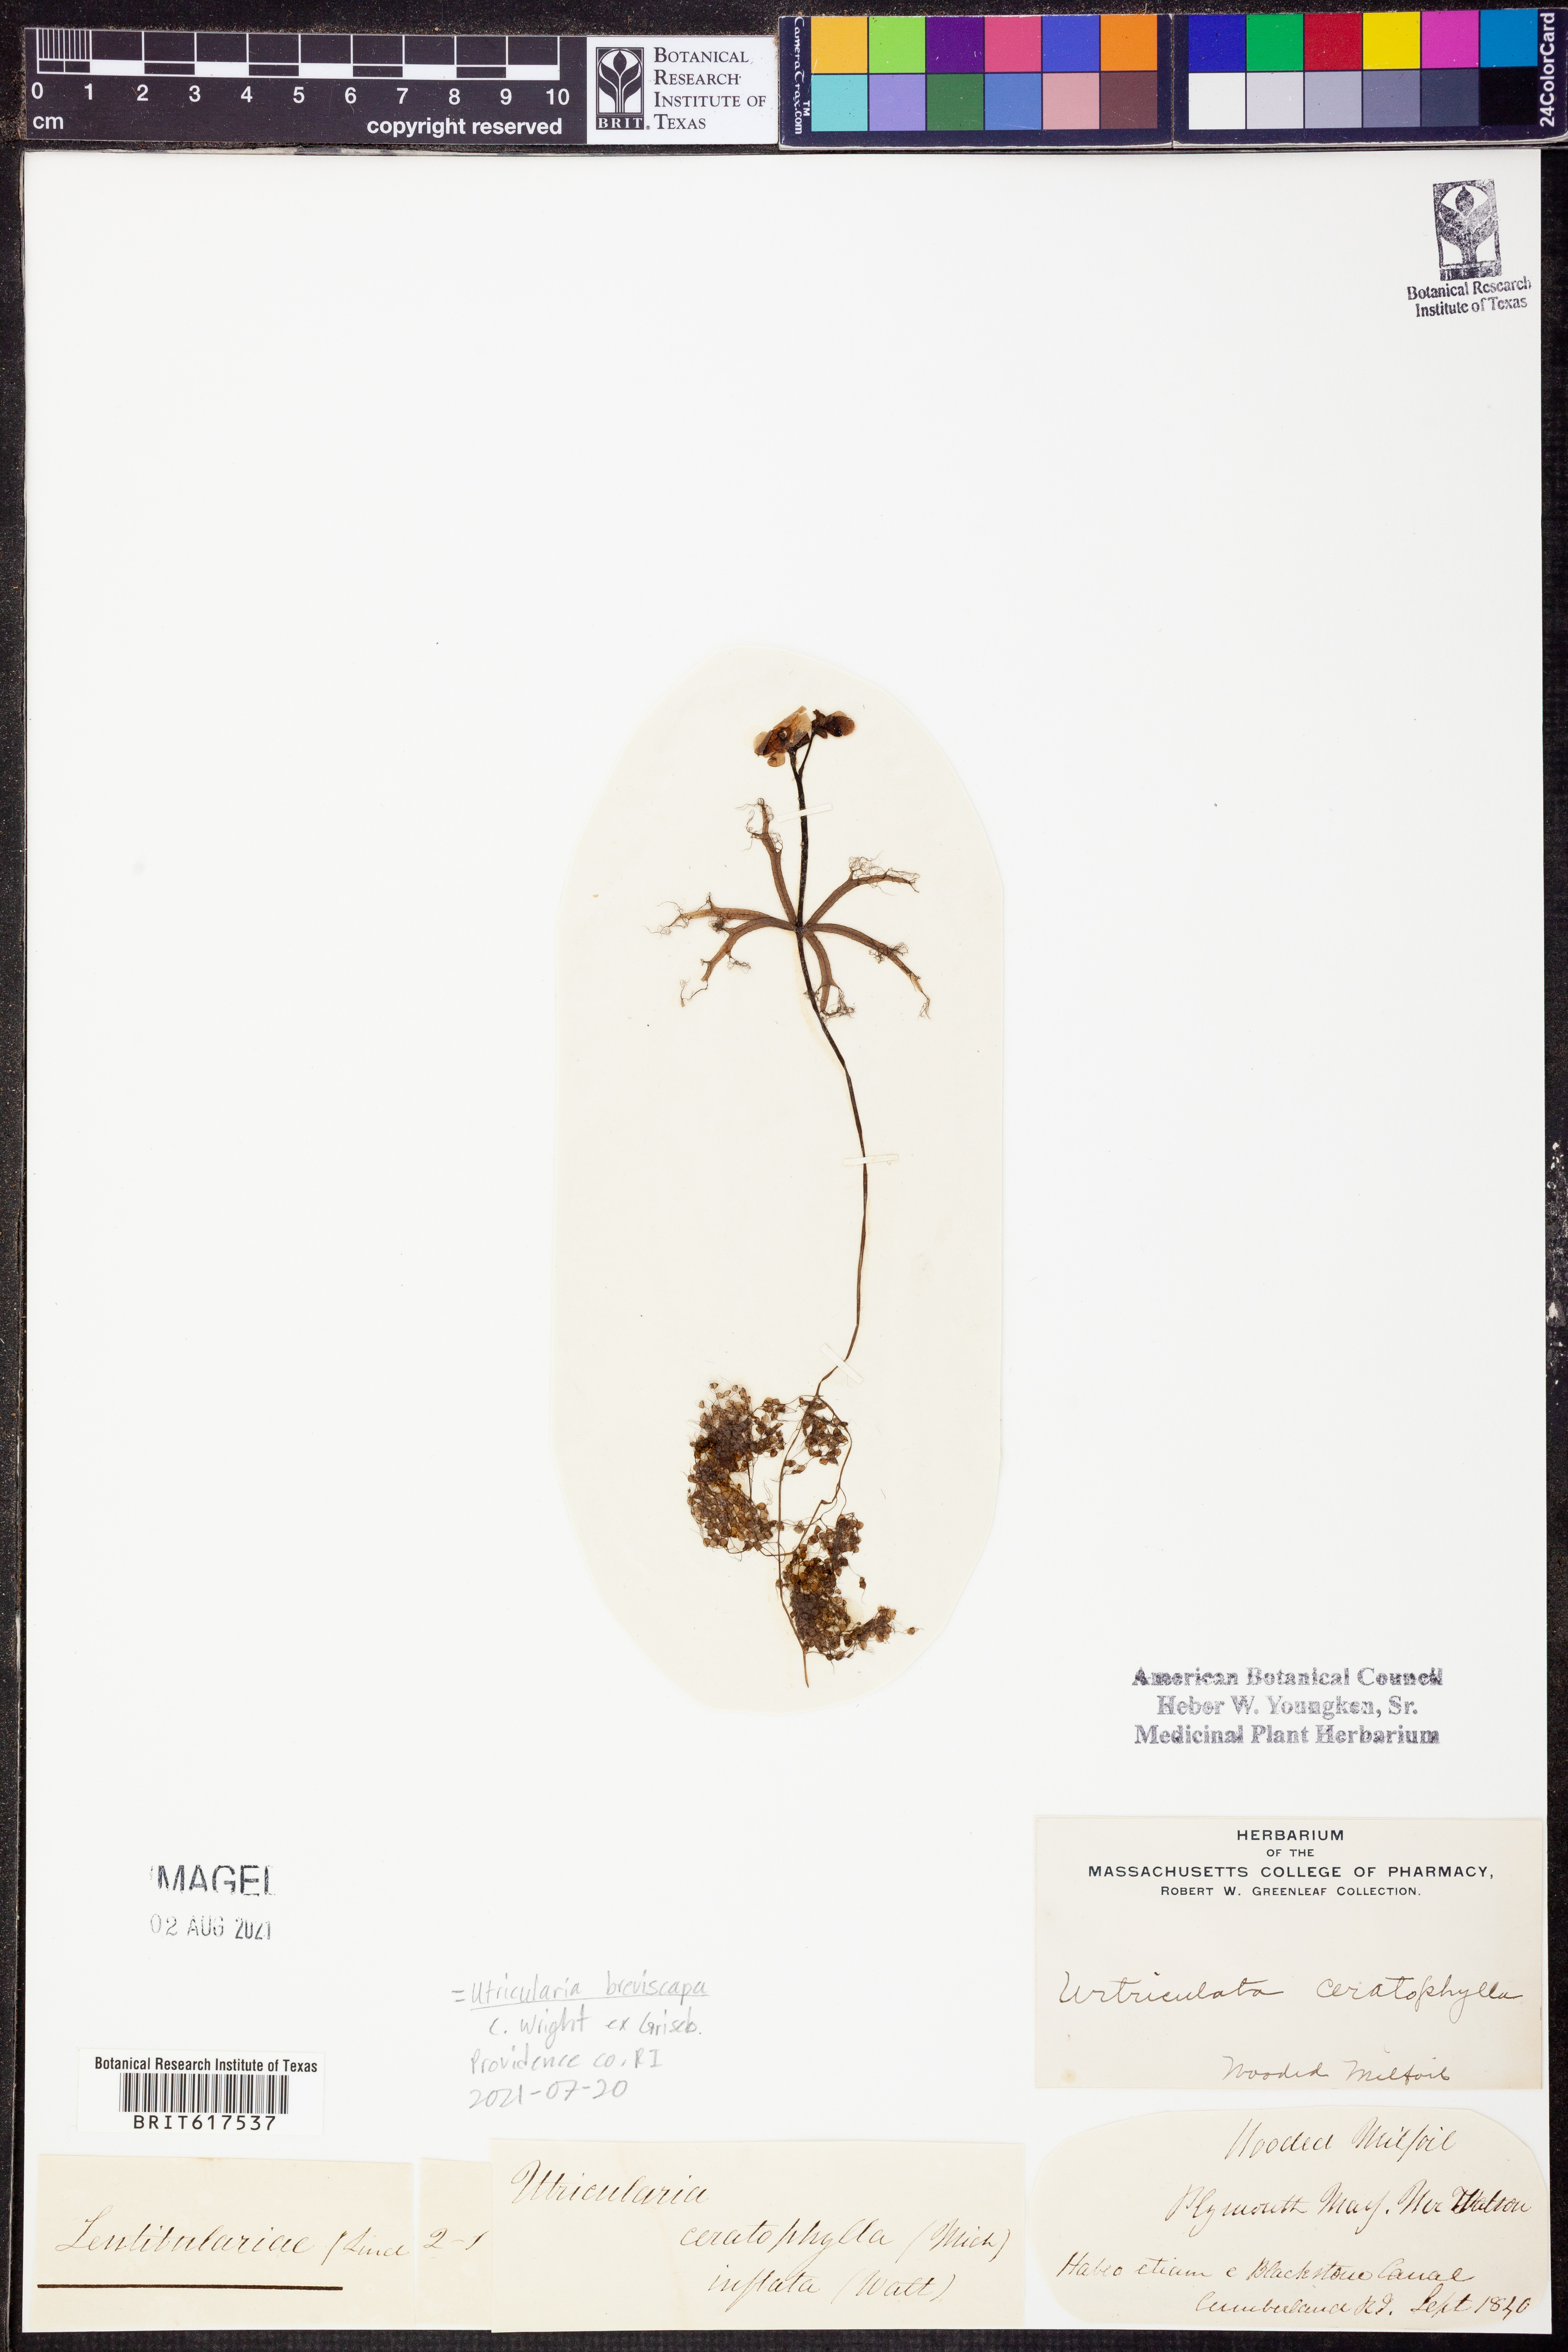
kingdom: Plantae
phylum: Tracheophyta
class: Magnoliopsida
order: Lamiales
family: Lentibulariaceae
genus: Utricularia
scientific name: Utricularia breviscapa
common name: Bladderwort
